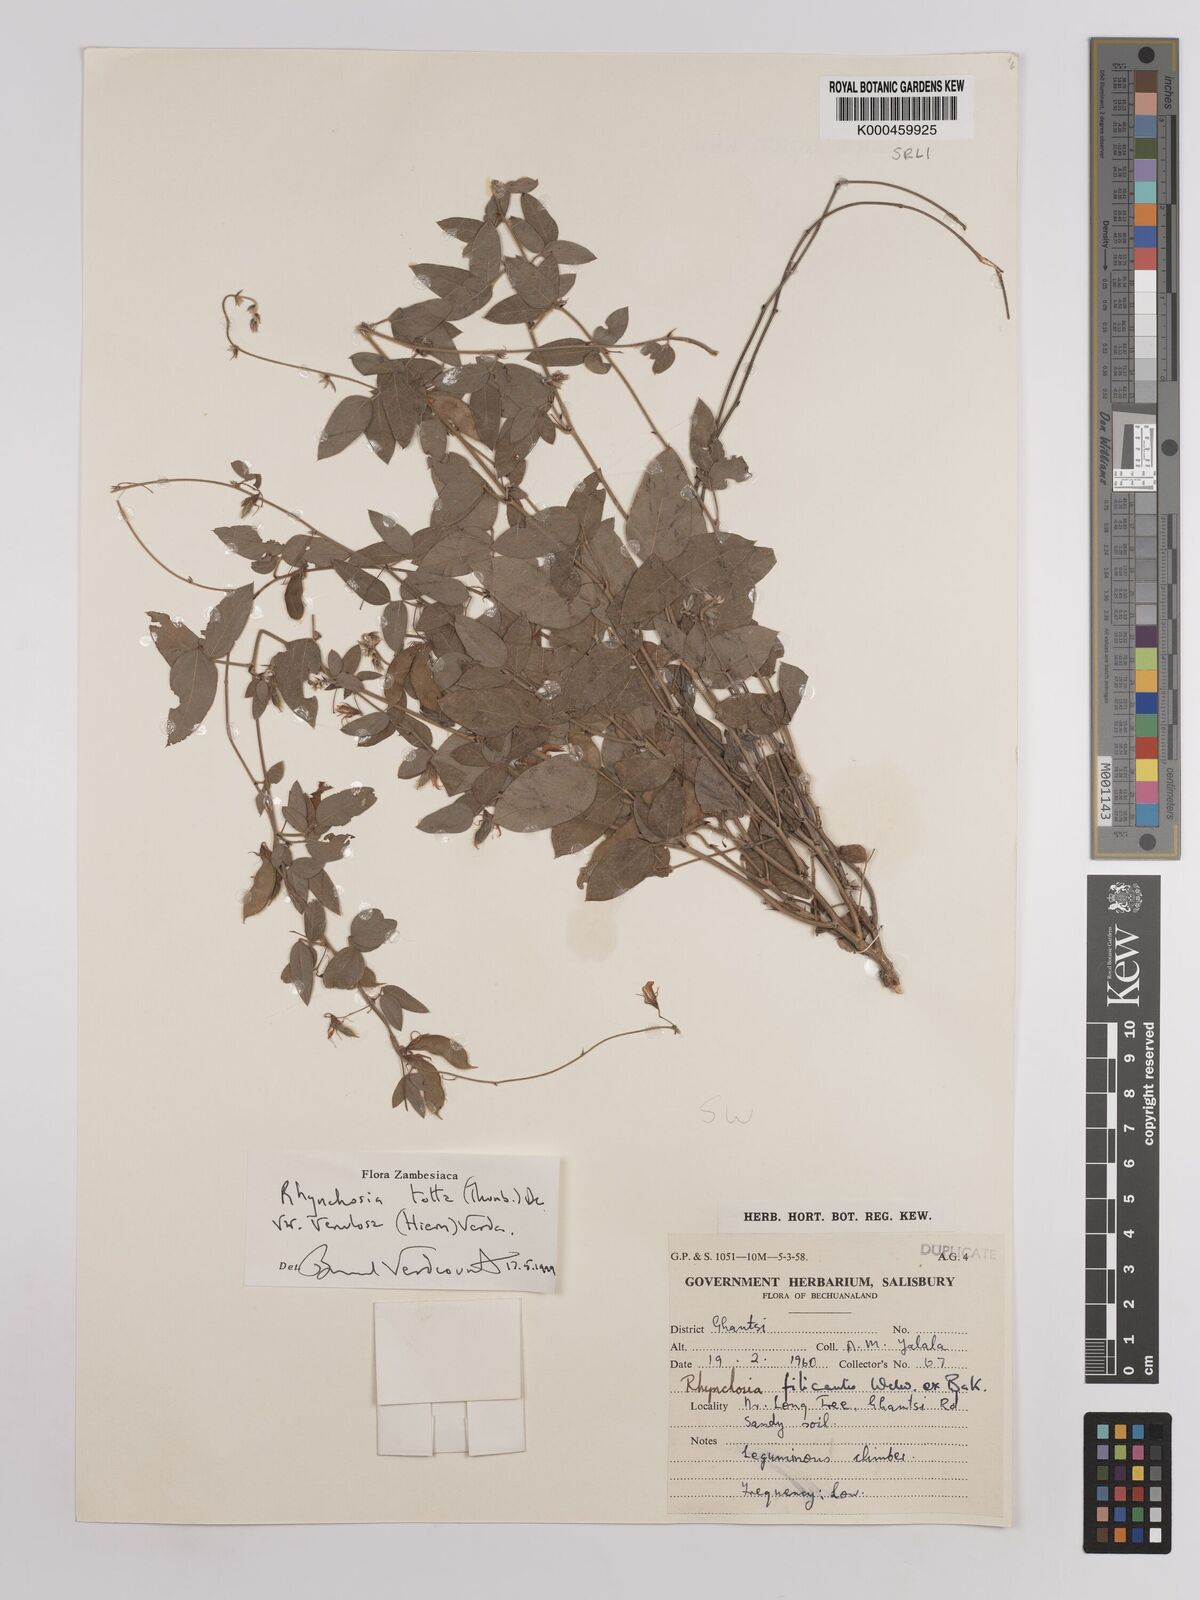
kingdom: Plantae
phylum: Tracheophyta
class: Magnoliopsida
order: Fabales
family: Fabaceae
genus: Rhynchosia
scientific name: Rhynchosia totta
